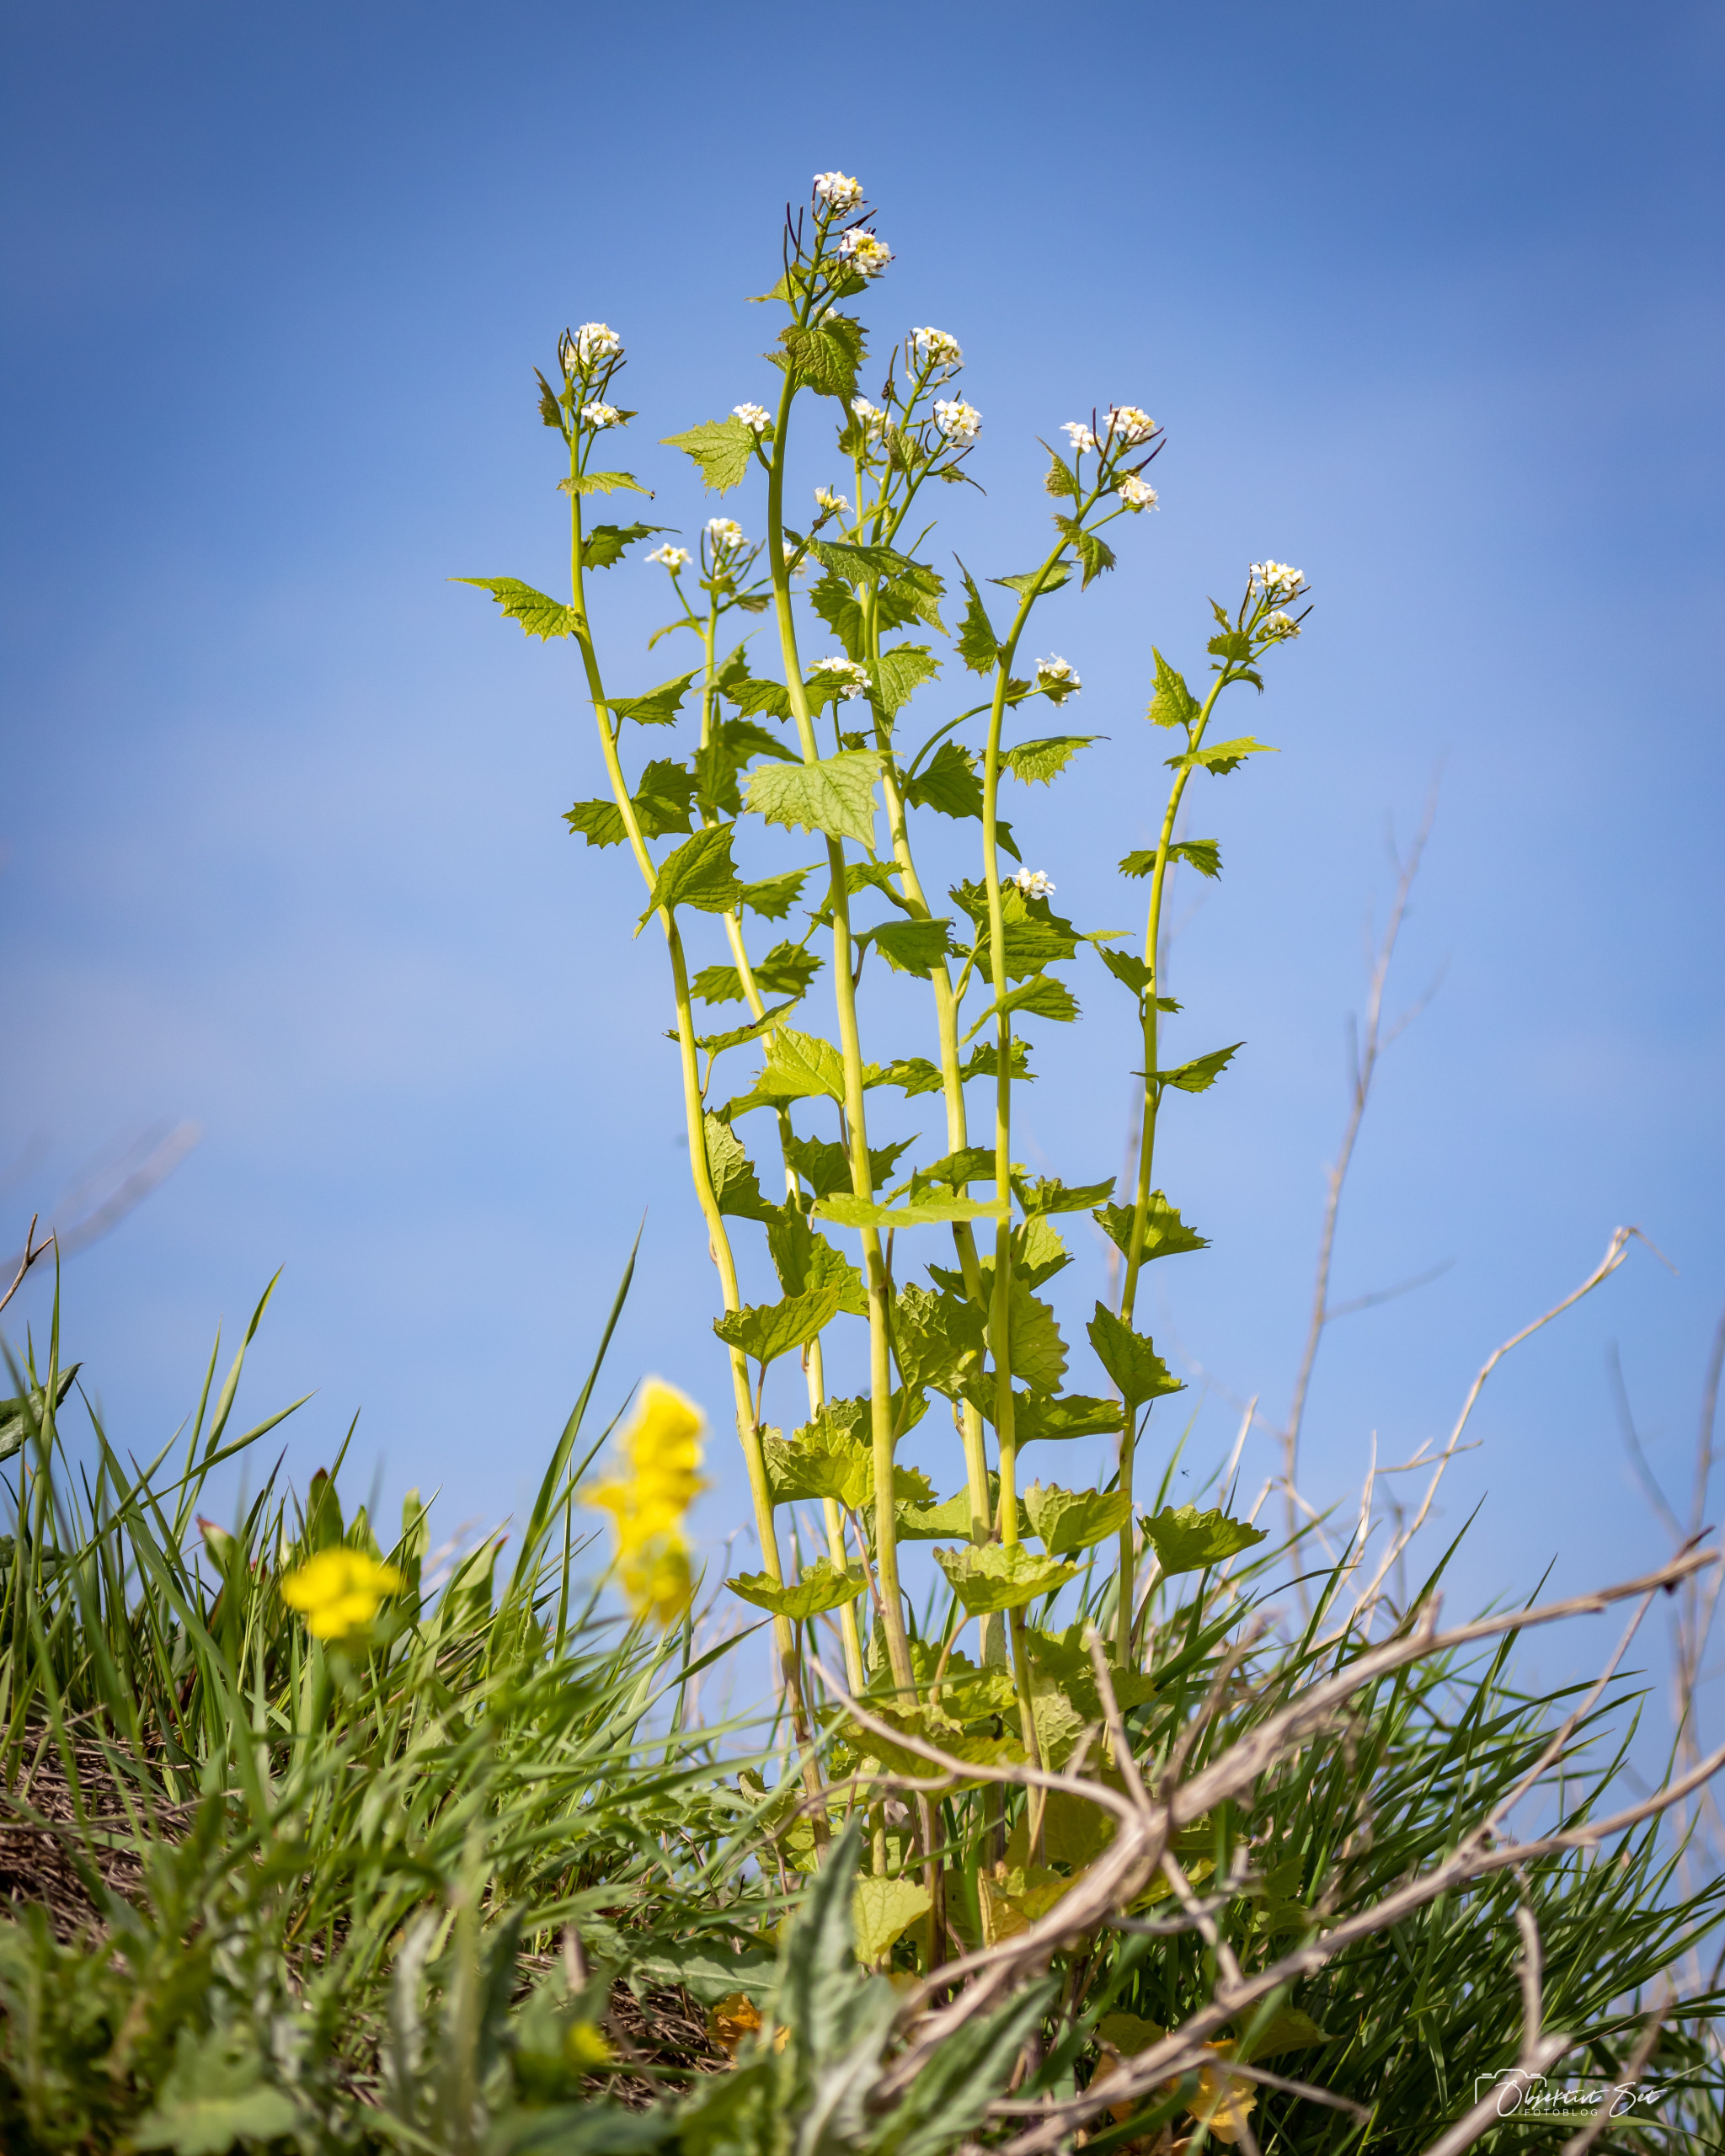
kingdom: Plantae
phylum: Tracheophyta
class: Magnoliopsida
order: Brassicales
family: Brassicaceae
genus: Alliaria
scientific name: Alliaria petiolata
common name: Løgkarse
